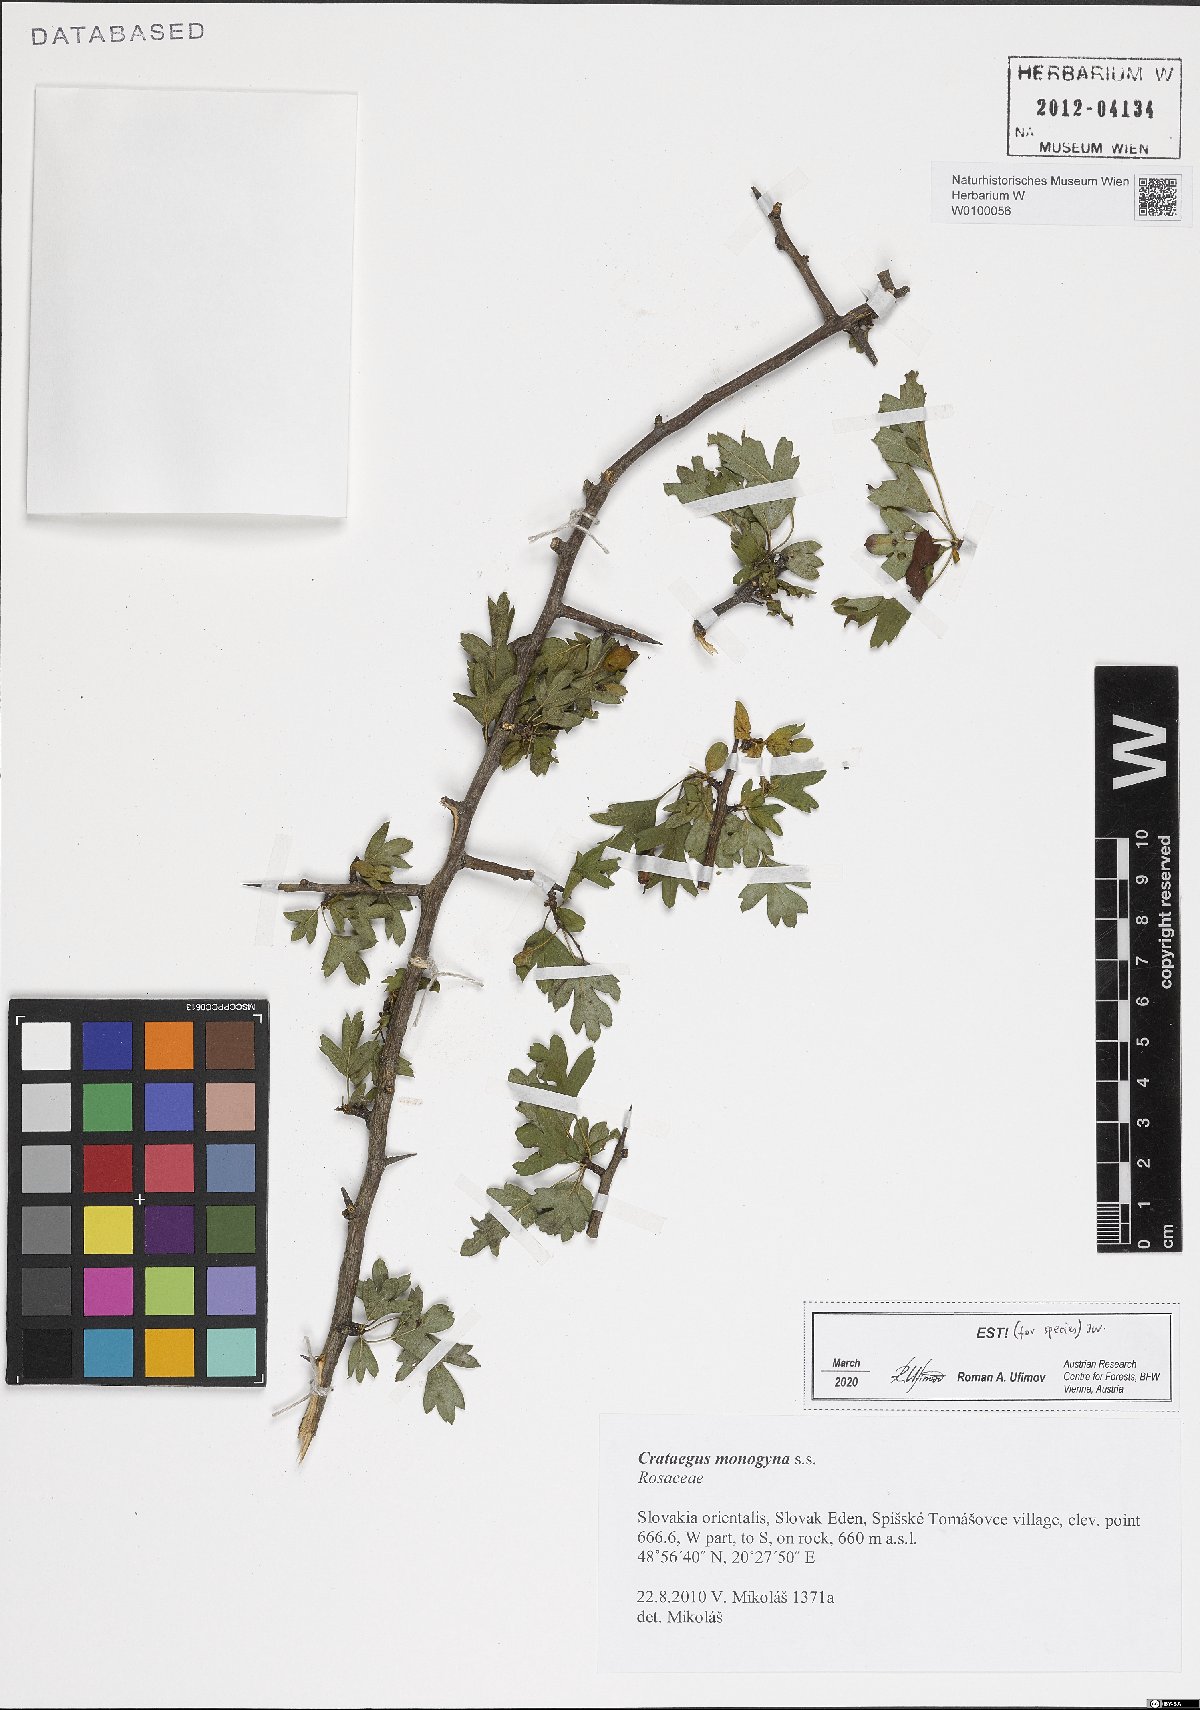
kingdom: Plantae
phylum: Tracheophyta
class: Magnoliopsida
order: Rosales
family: Rosaceae
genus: Crataegus
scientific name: Crataegus monogyna
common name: Hawthorn
